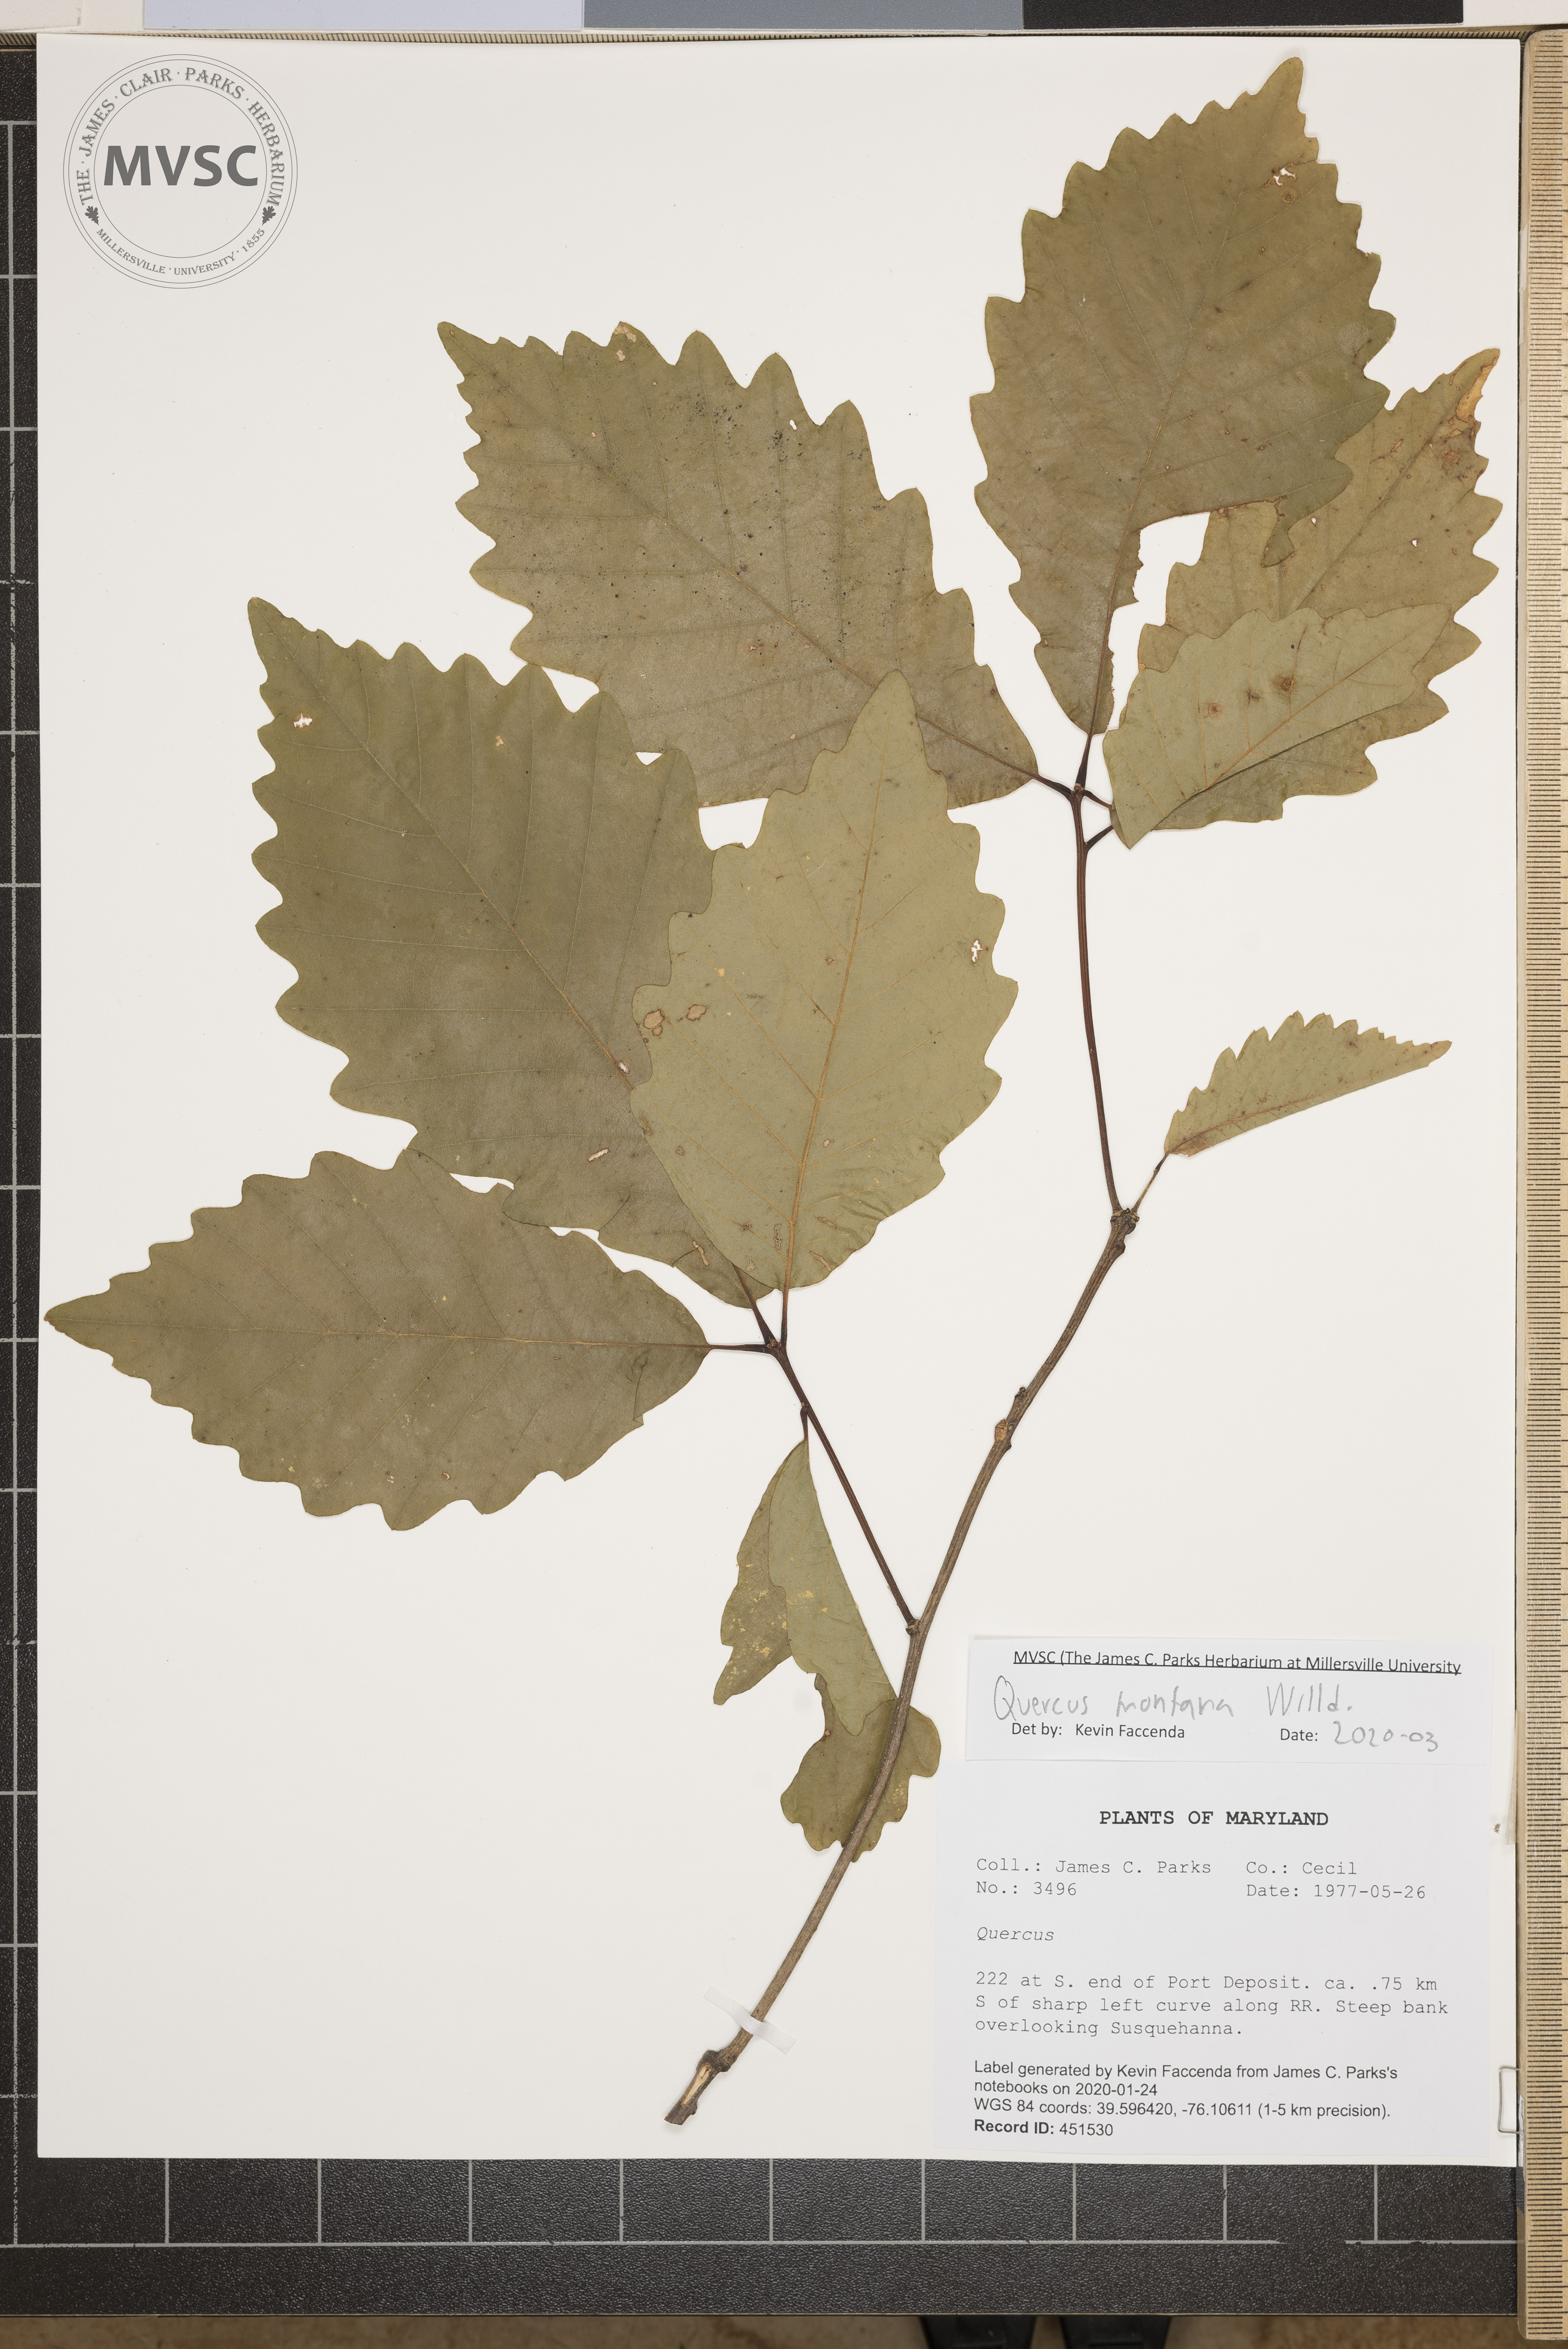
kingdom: Plantae
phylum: Tracheophyta
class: Magnoliopsida
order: Fagales
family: Fagaceae
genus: Quercus
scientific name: Quercus montana
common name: Chestnut oak
